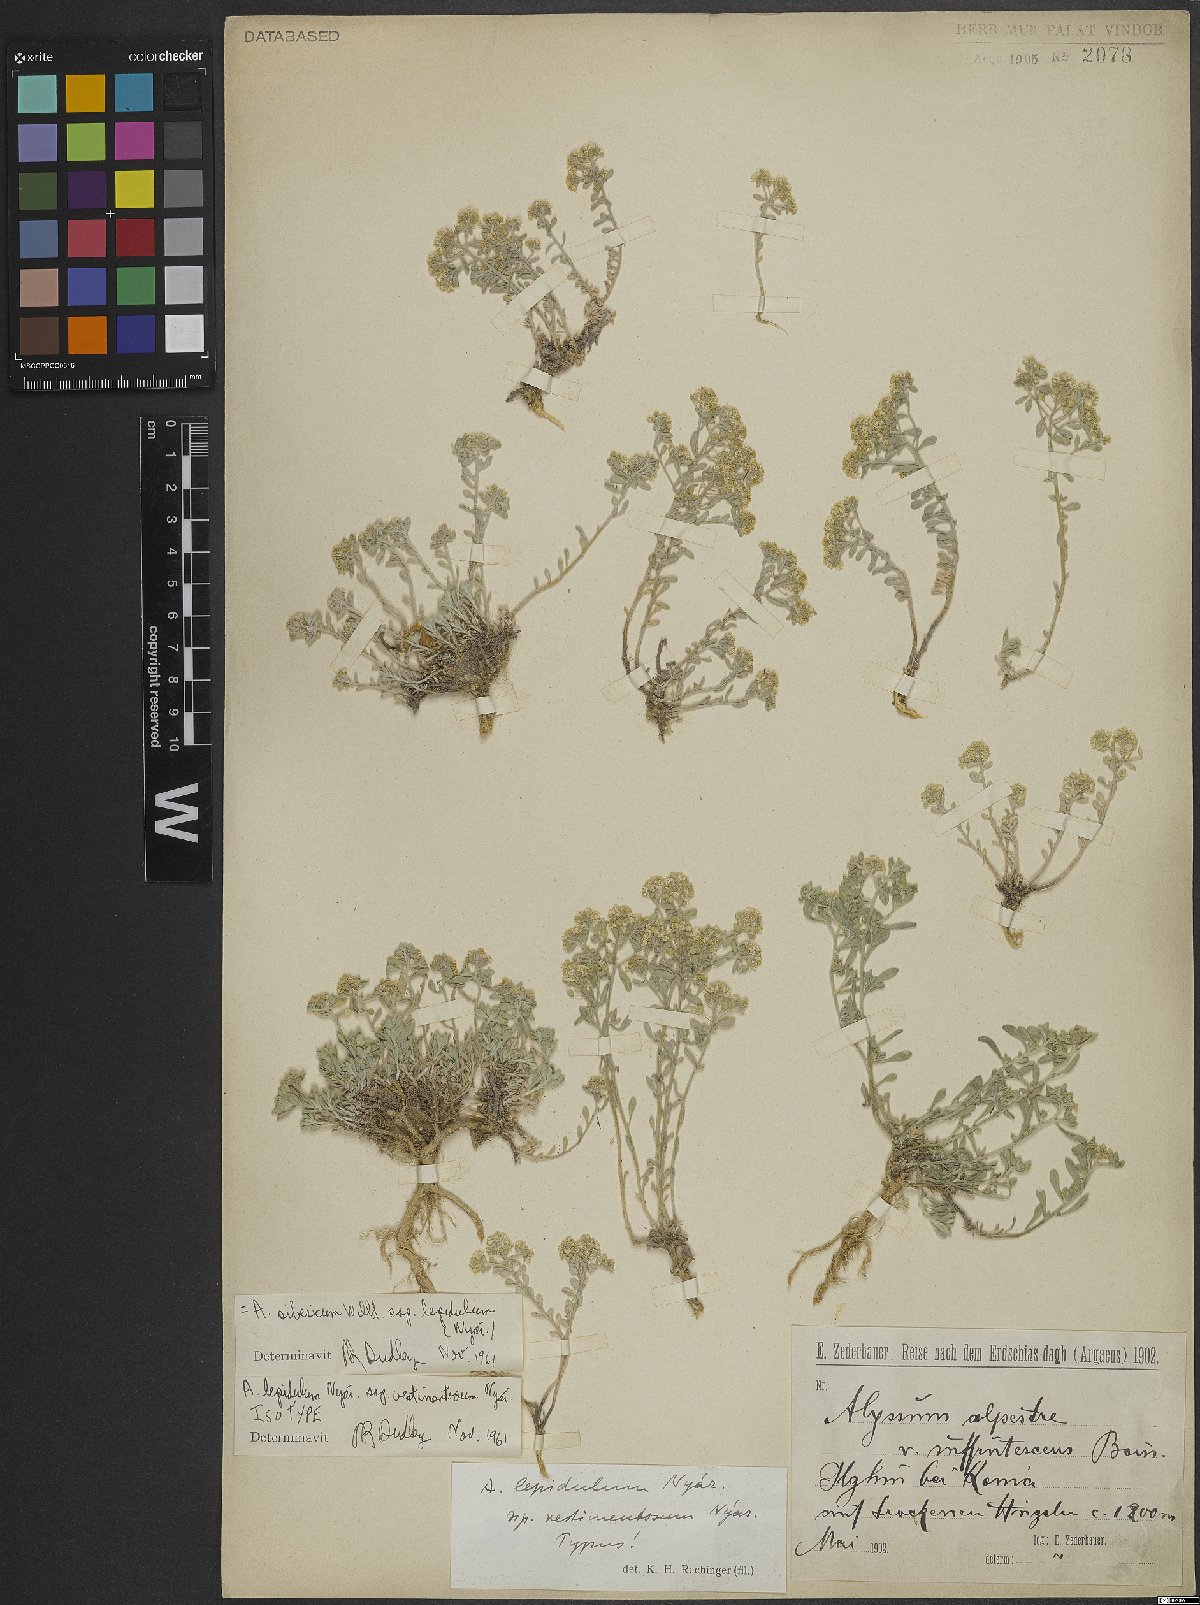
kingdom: Plantae
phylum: Tracheophyta
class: Magnoliopsida
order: Brassicales
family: Brassicaceae
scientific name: Brassicaceae
